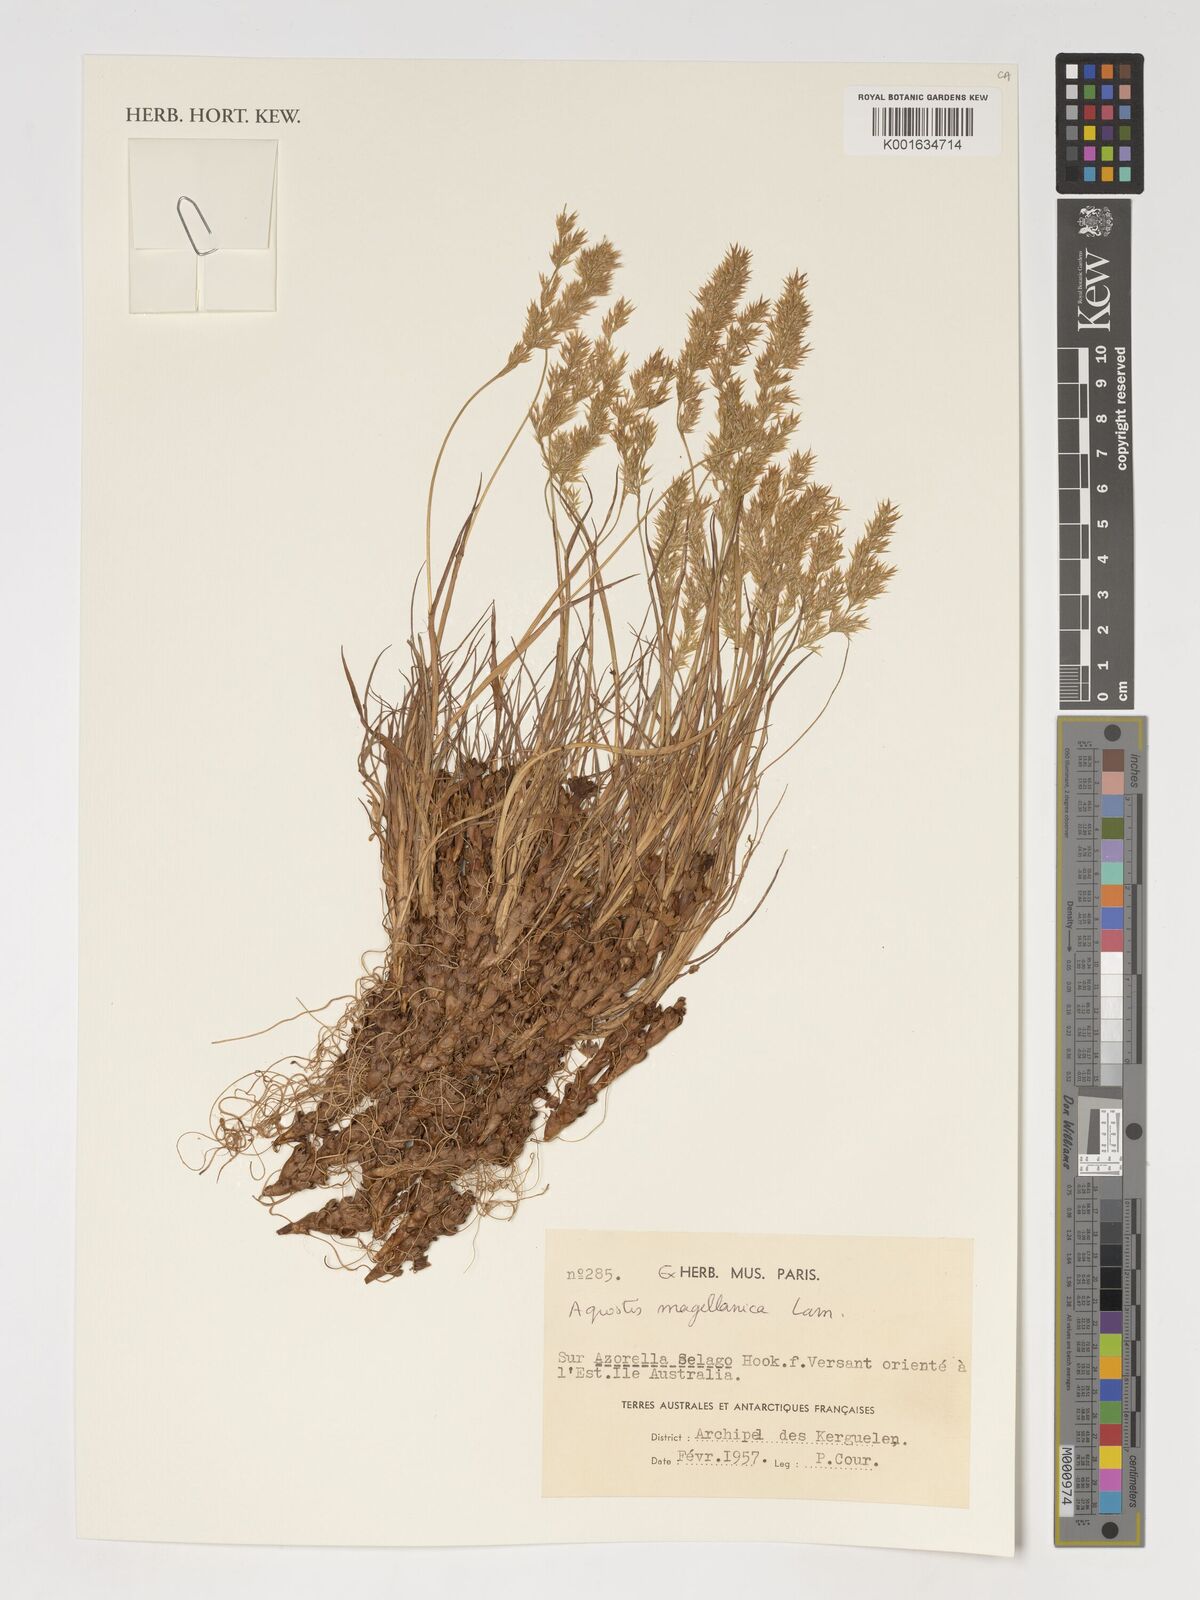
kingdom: Plantae
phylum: Tracheophyta
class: Liliopsida
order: Poales
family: Poaceae
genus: Polypogon
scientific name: Polypogon magellanicus
